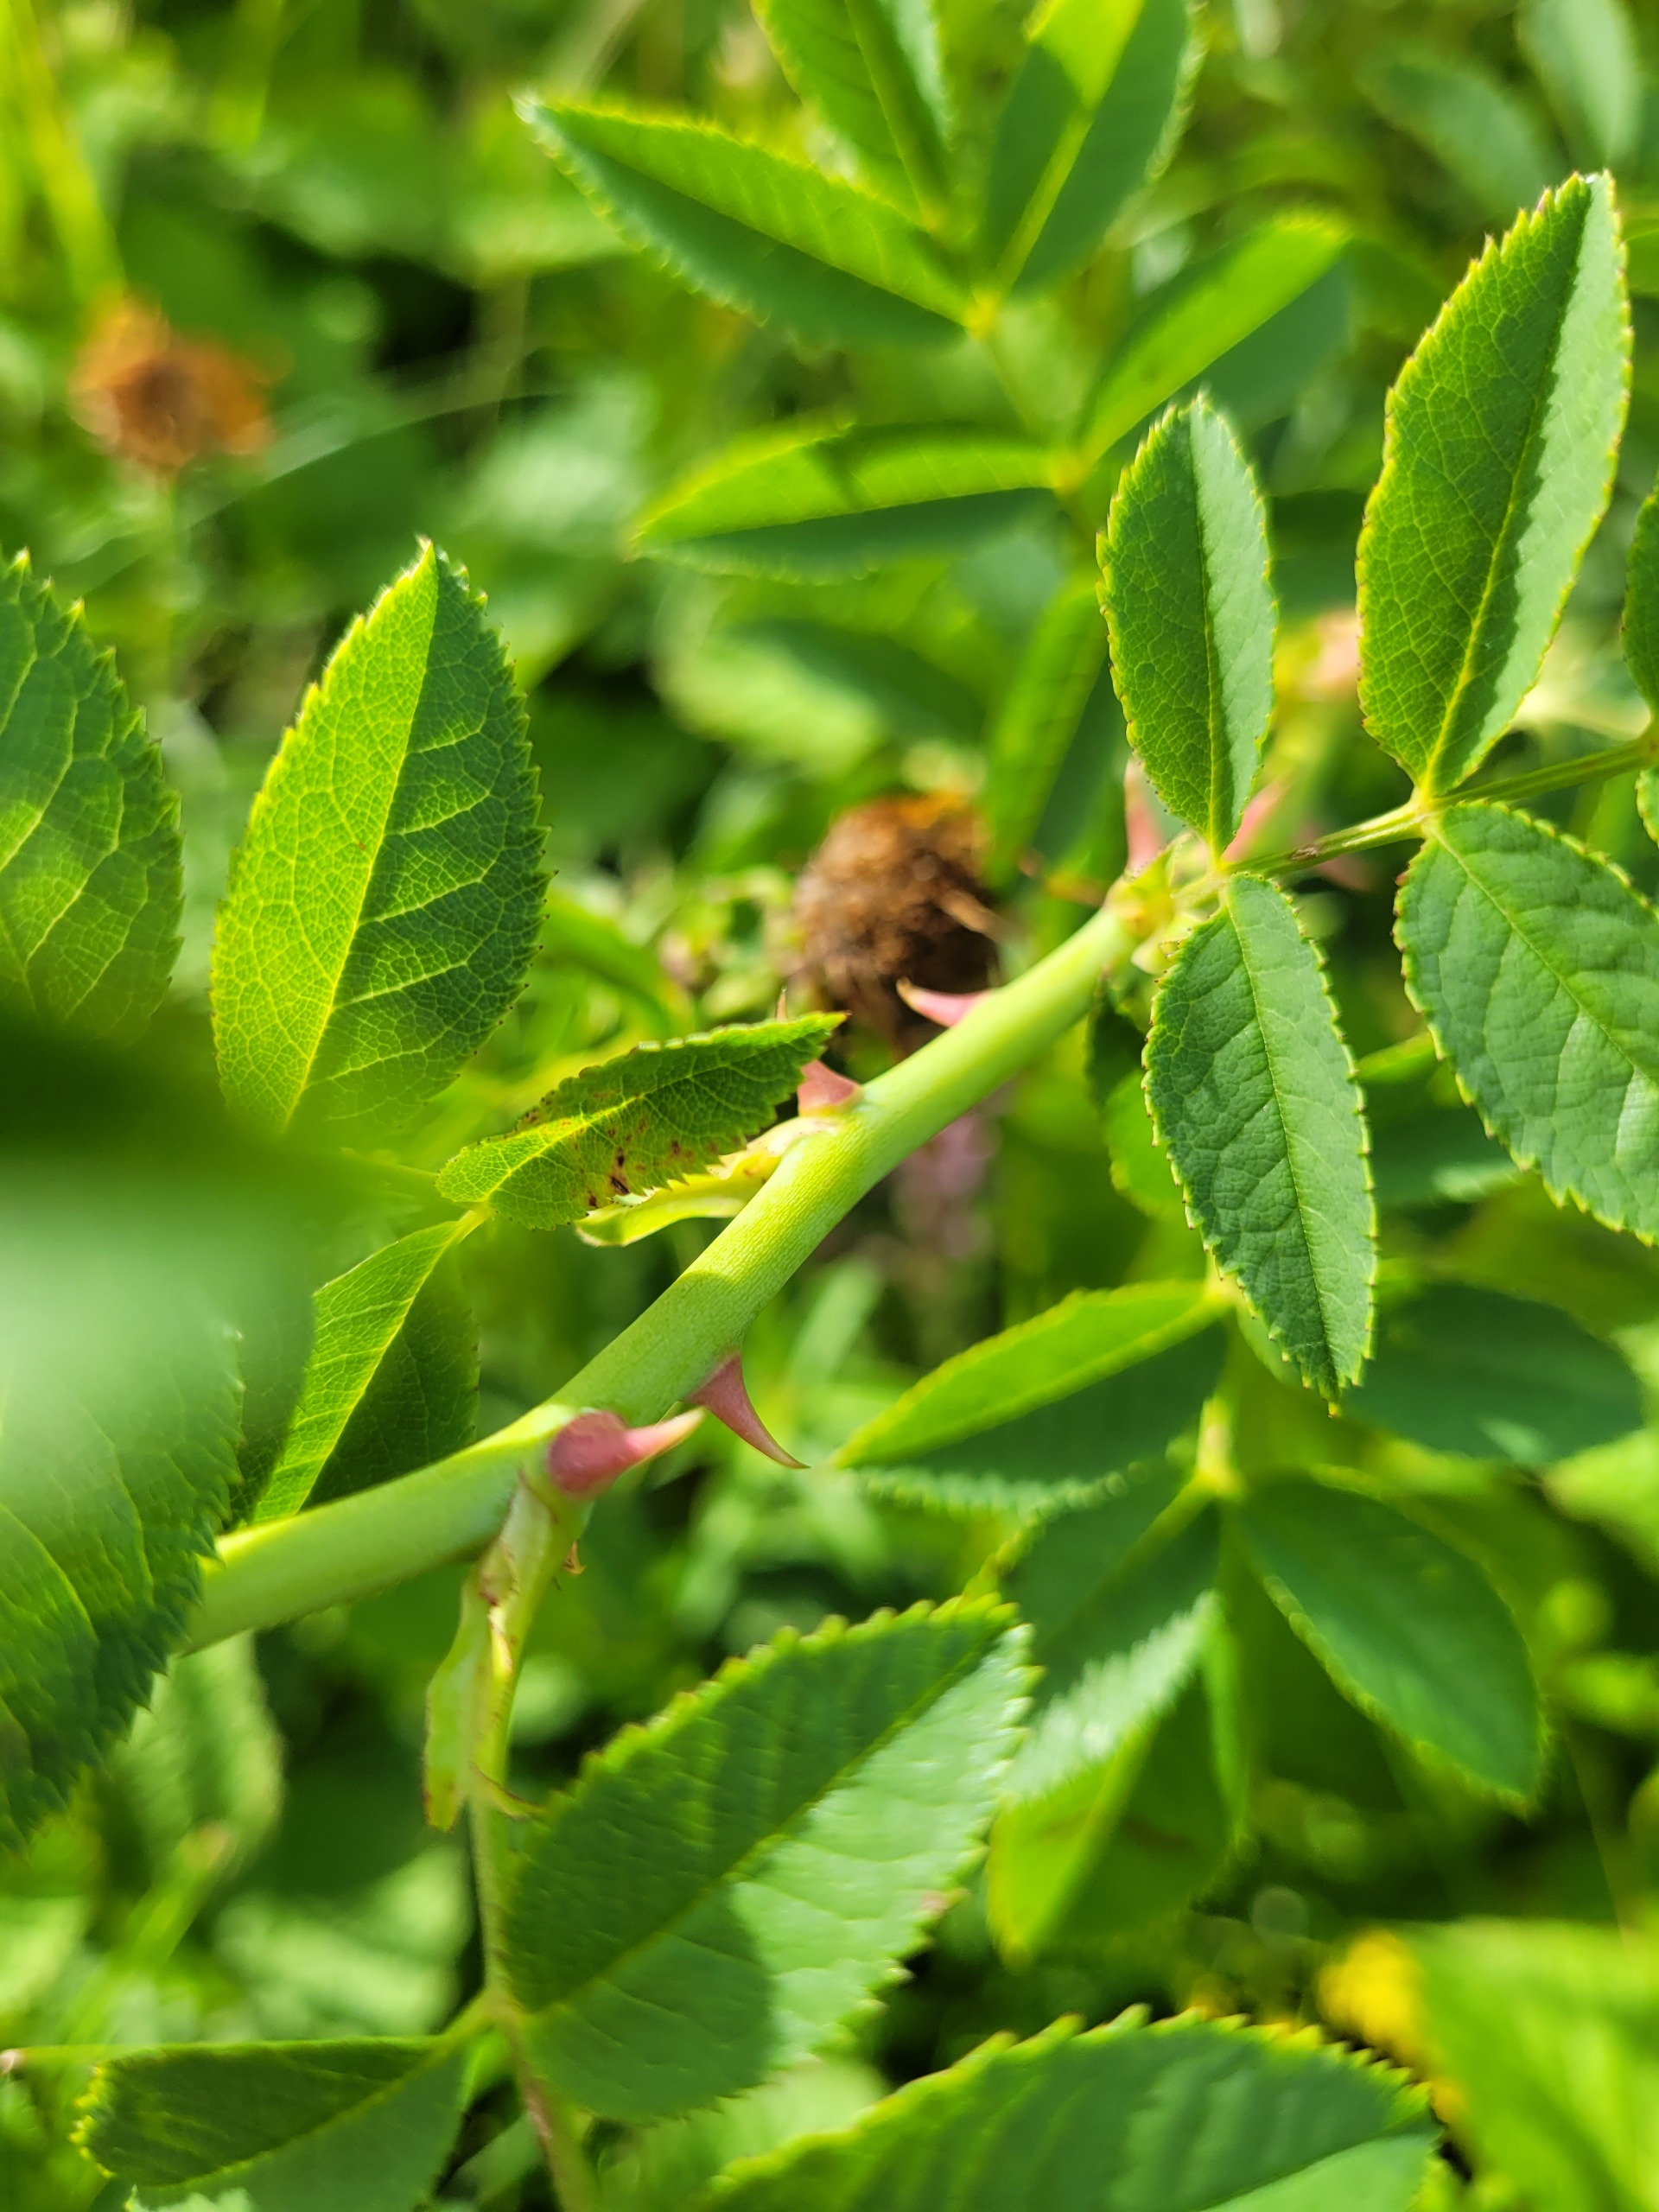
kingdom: Plantae
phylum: Tracheophyta
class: Magnoliopsida
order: Rosales
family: Rosaceae
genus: Rosa
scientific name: Rosa
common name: Roseslægten
